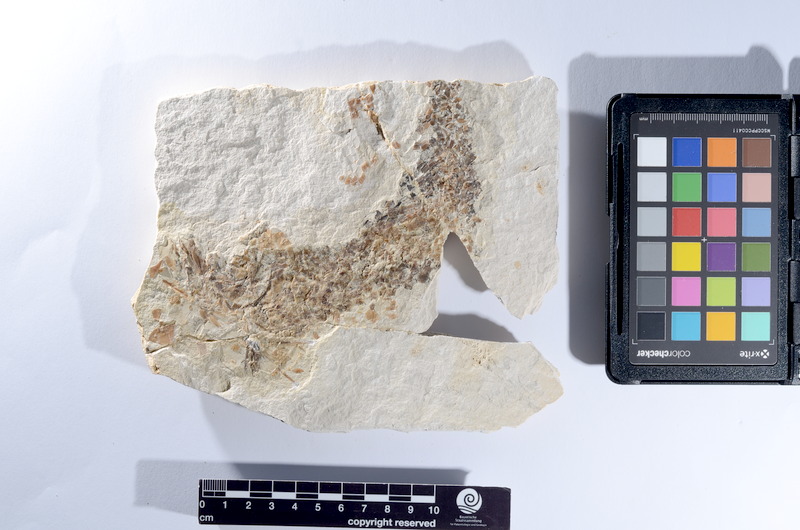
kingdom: Animalia
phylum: Chordata
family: Pholidophoridae
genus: Pholidophorus
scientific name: Pholidophorus
